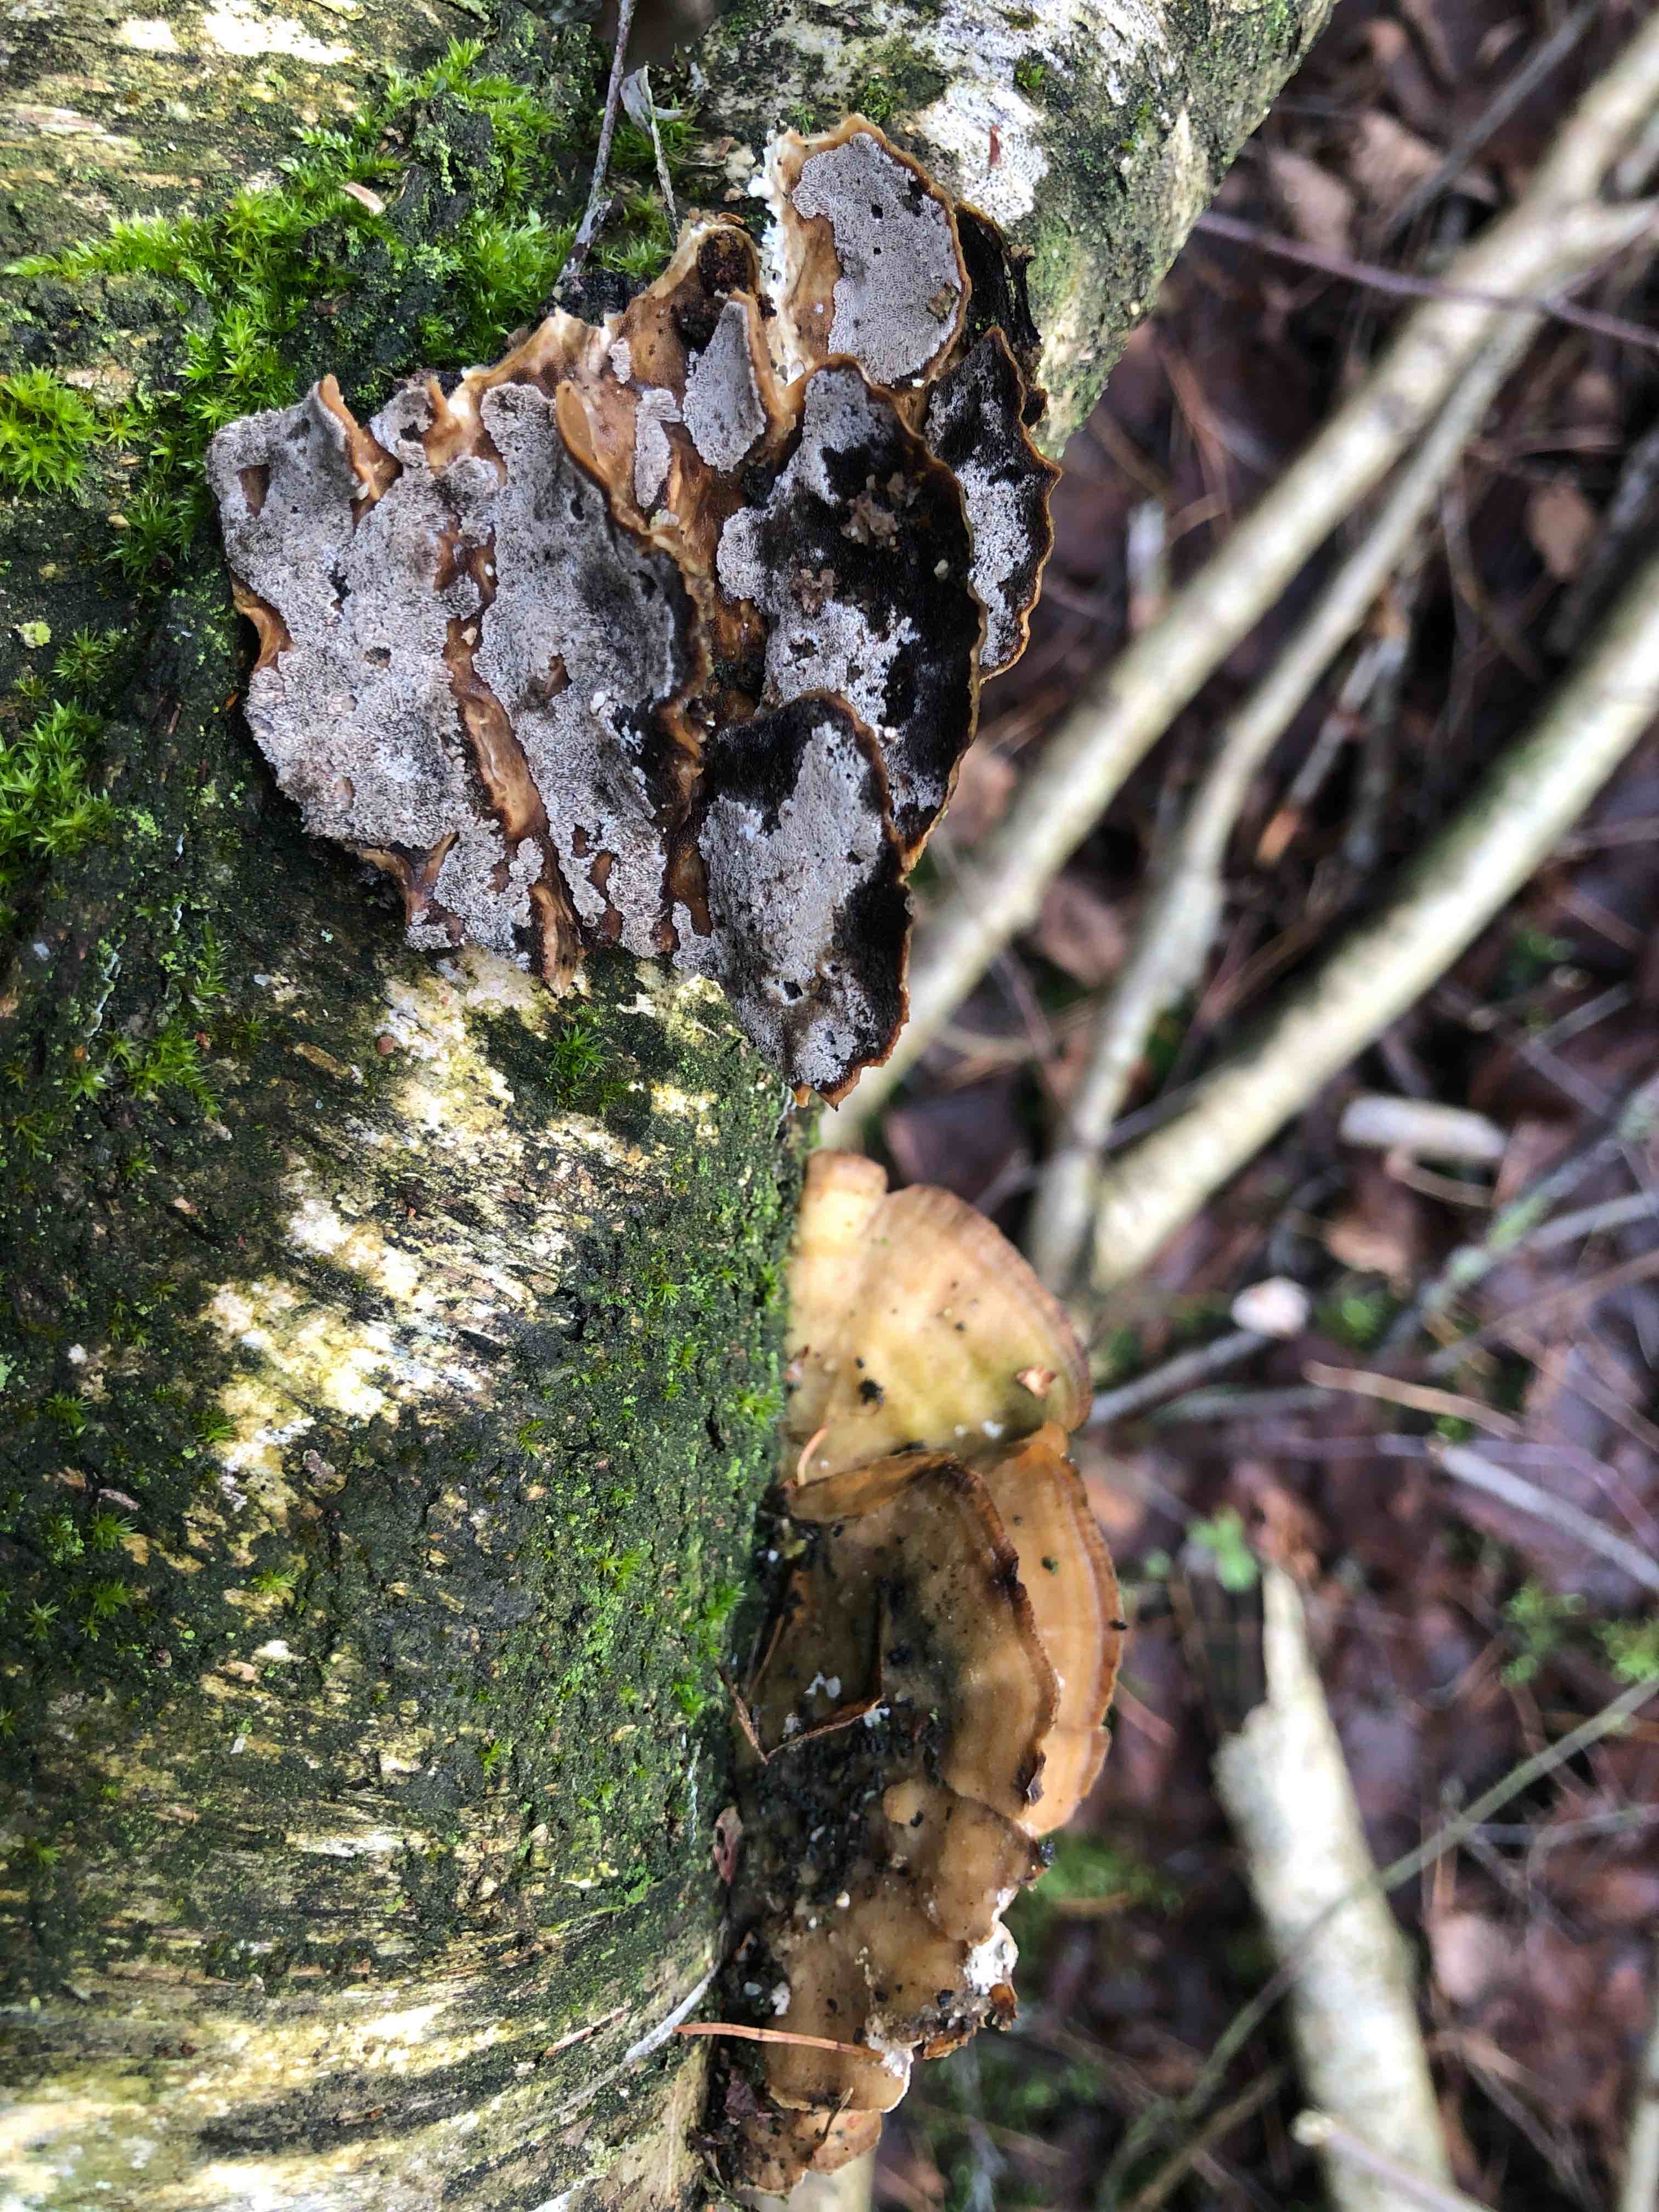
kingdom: Fungi
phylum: Basidiomycota
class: Agaricomycetes
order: Polyporales
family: Phanerochaetaceae
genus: Bjerkandera
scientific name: Bjerkandera adusta
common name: sveden sodporesvamp
